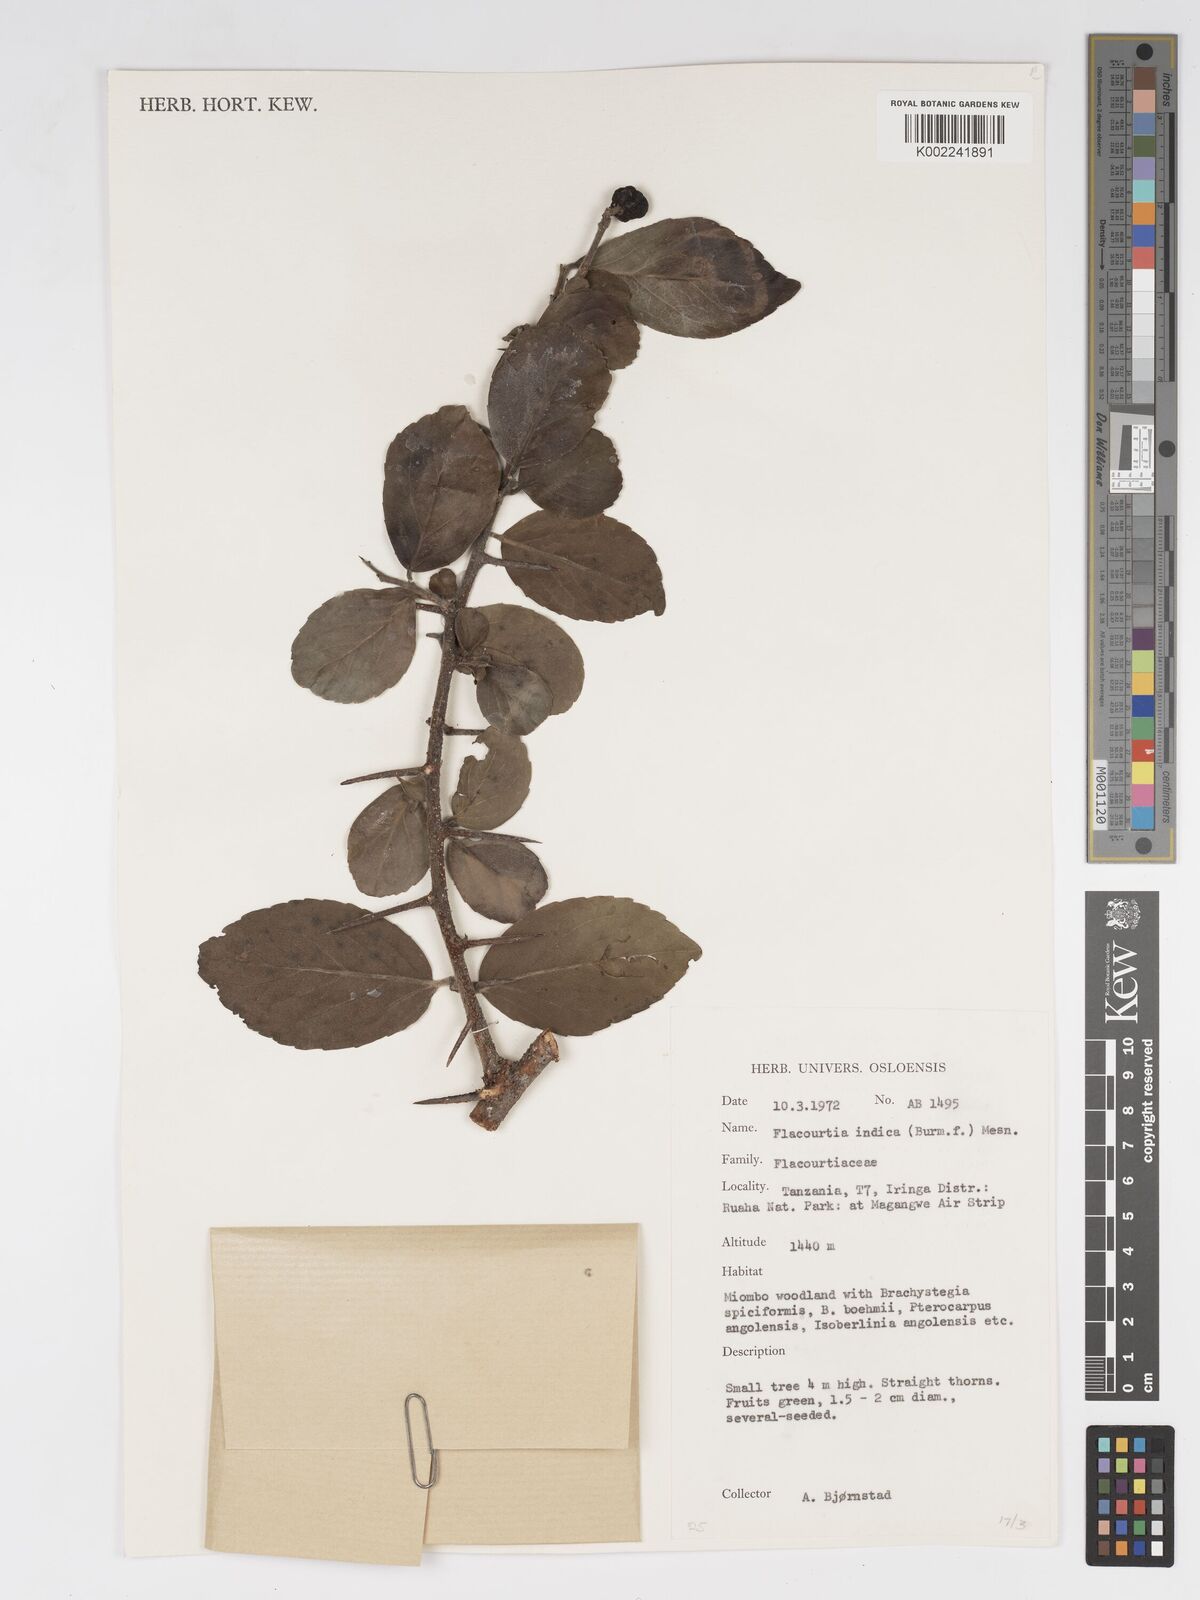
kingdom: Plantae
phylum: Tracheophyta
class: Magnoliopsida
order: Malpighiales
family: Salicaceae
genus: Flacourtia
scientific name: Flacourtia indica
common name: Governor's plum
